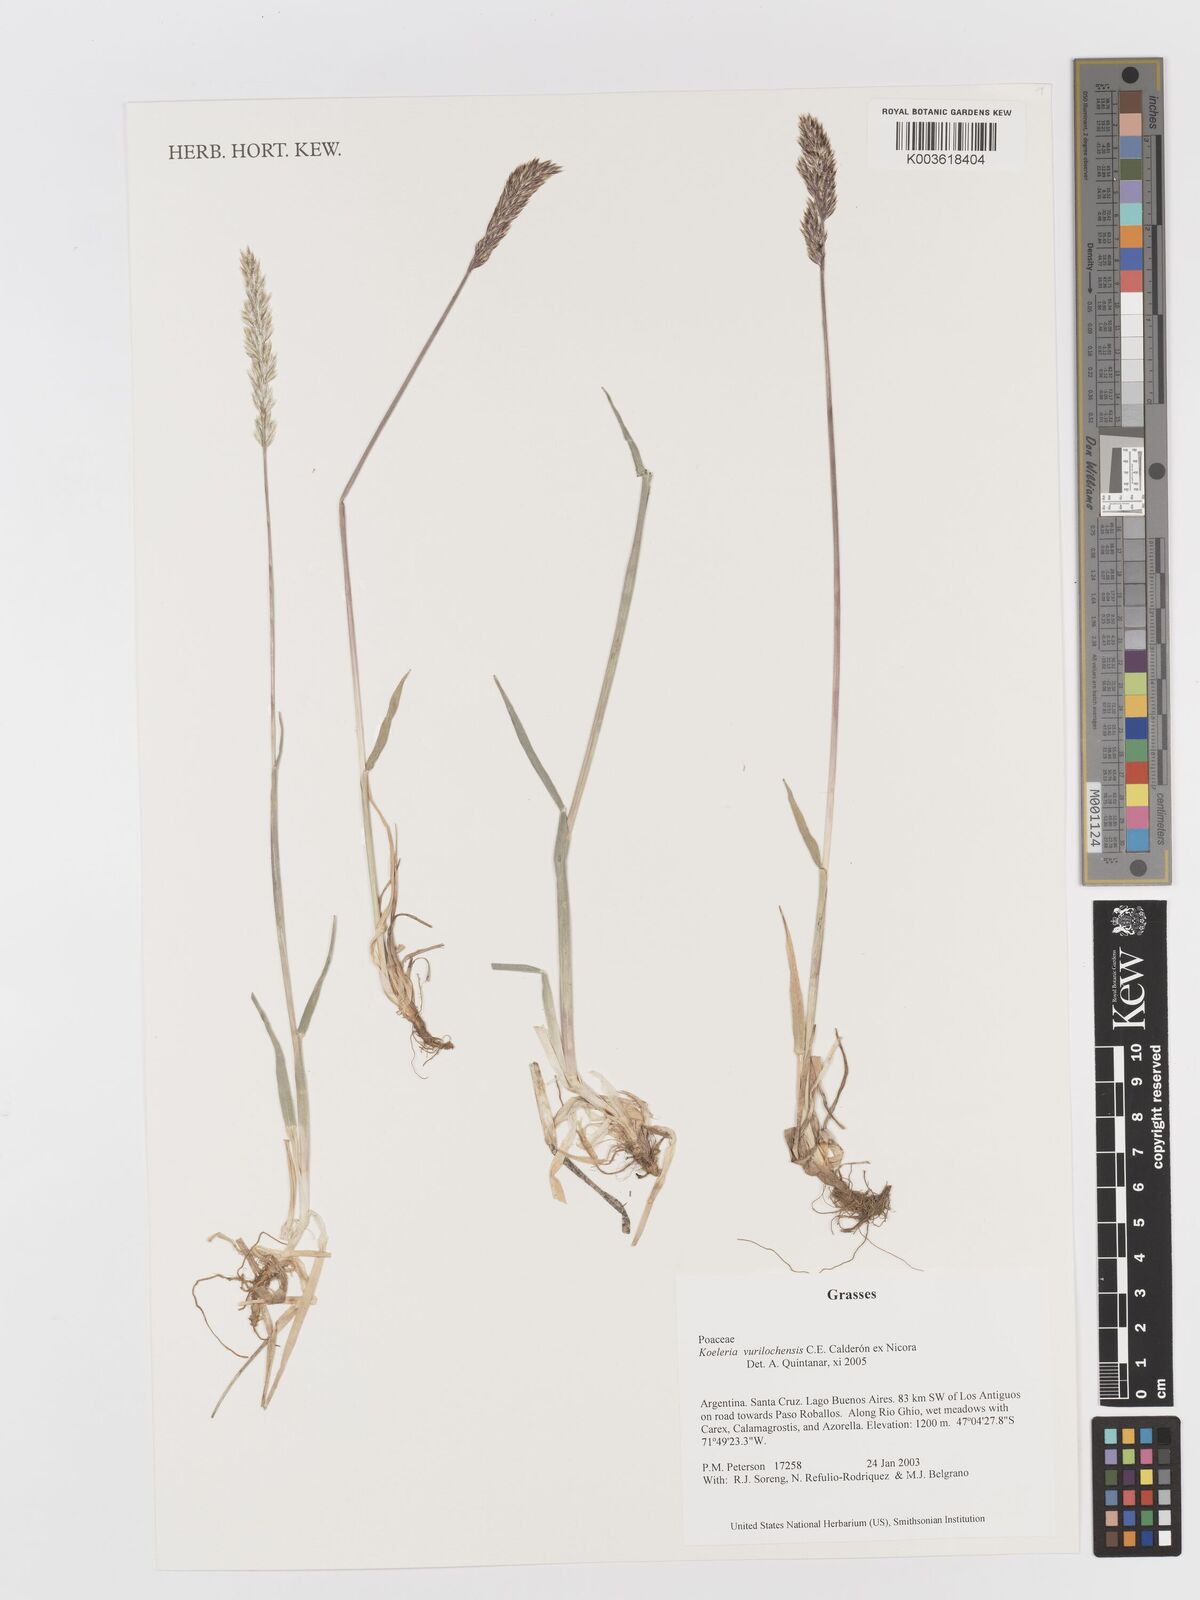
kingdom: Plantae
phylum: Tracheophyta
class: Liliopsida
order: Poales
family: Poaceae
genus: Koeleria
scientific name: Koeleria vurilochensis
